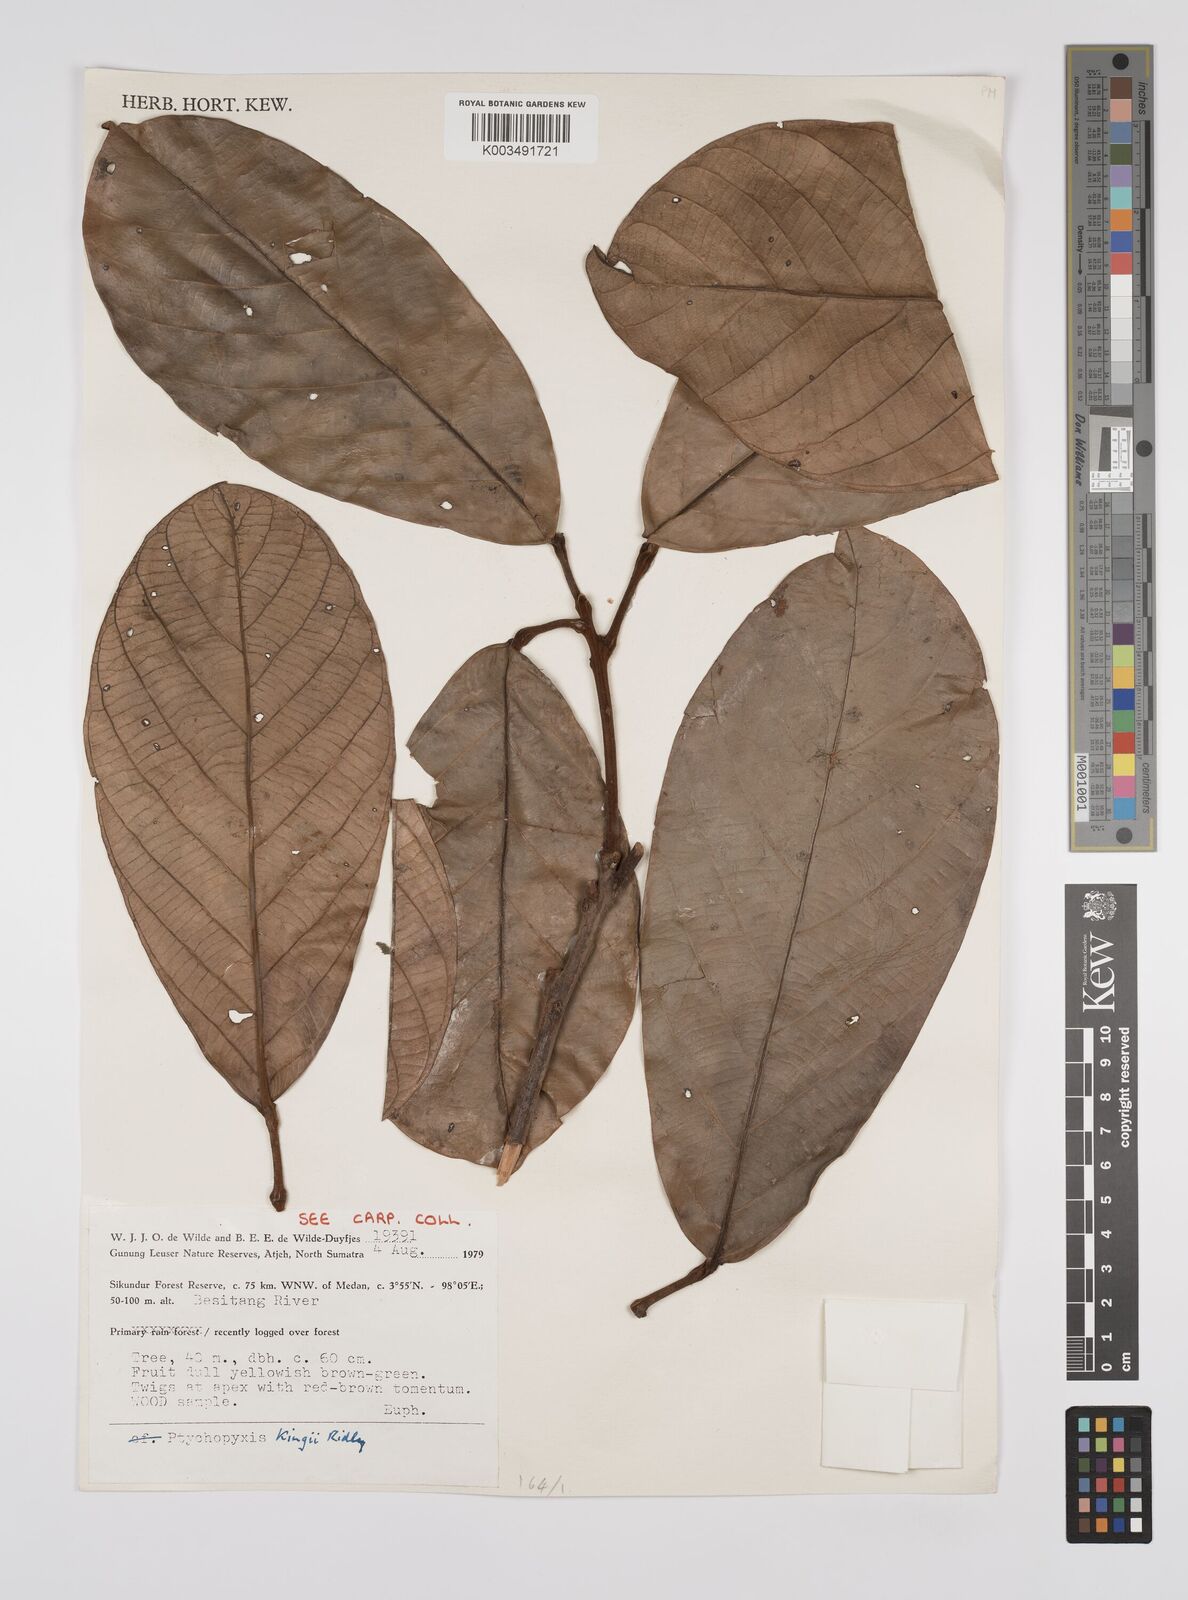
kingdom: Plantae
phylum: Tracheophyta
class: Magnoliopsida
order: Malpighiales
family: Euphorbiaceae
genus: Ptychopyxis
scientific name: Ptychopyxis kingii
